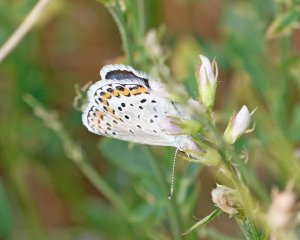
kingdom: Animalia
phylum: Arthropoda
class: Insecta
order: Lepidoptera
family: Lycaenidae
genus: Lycaeides
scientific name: Lycaeides melissa
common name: Melissa Blue
